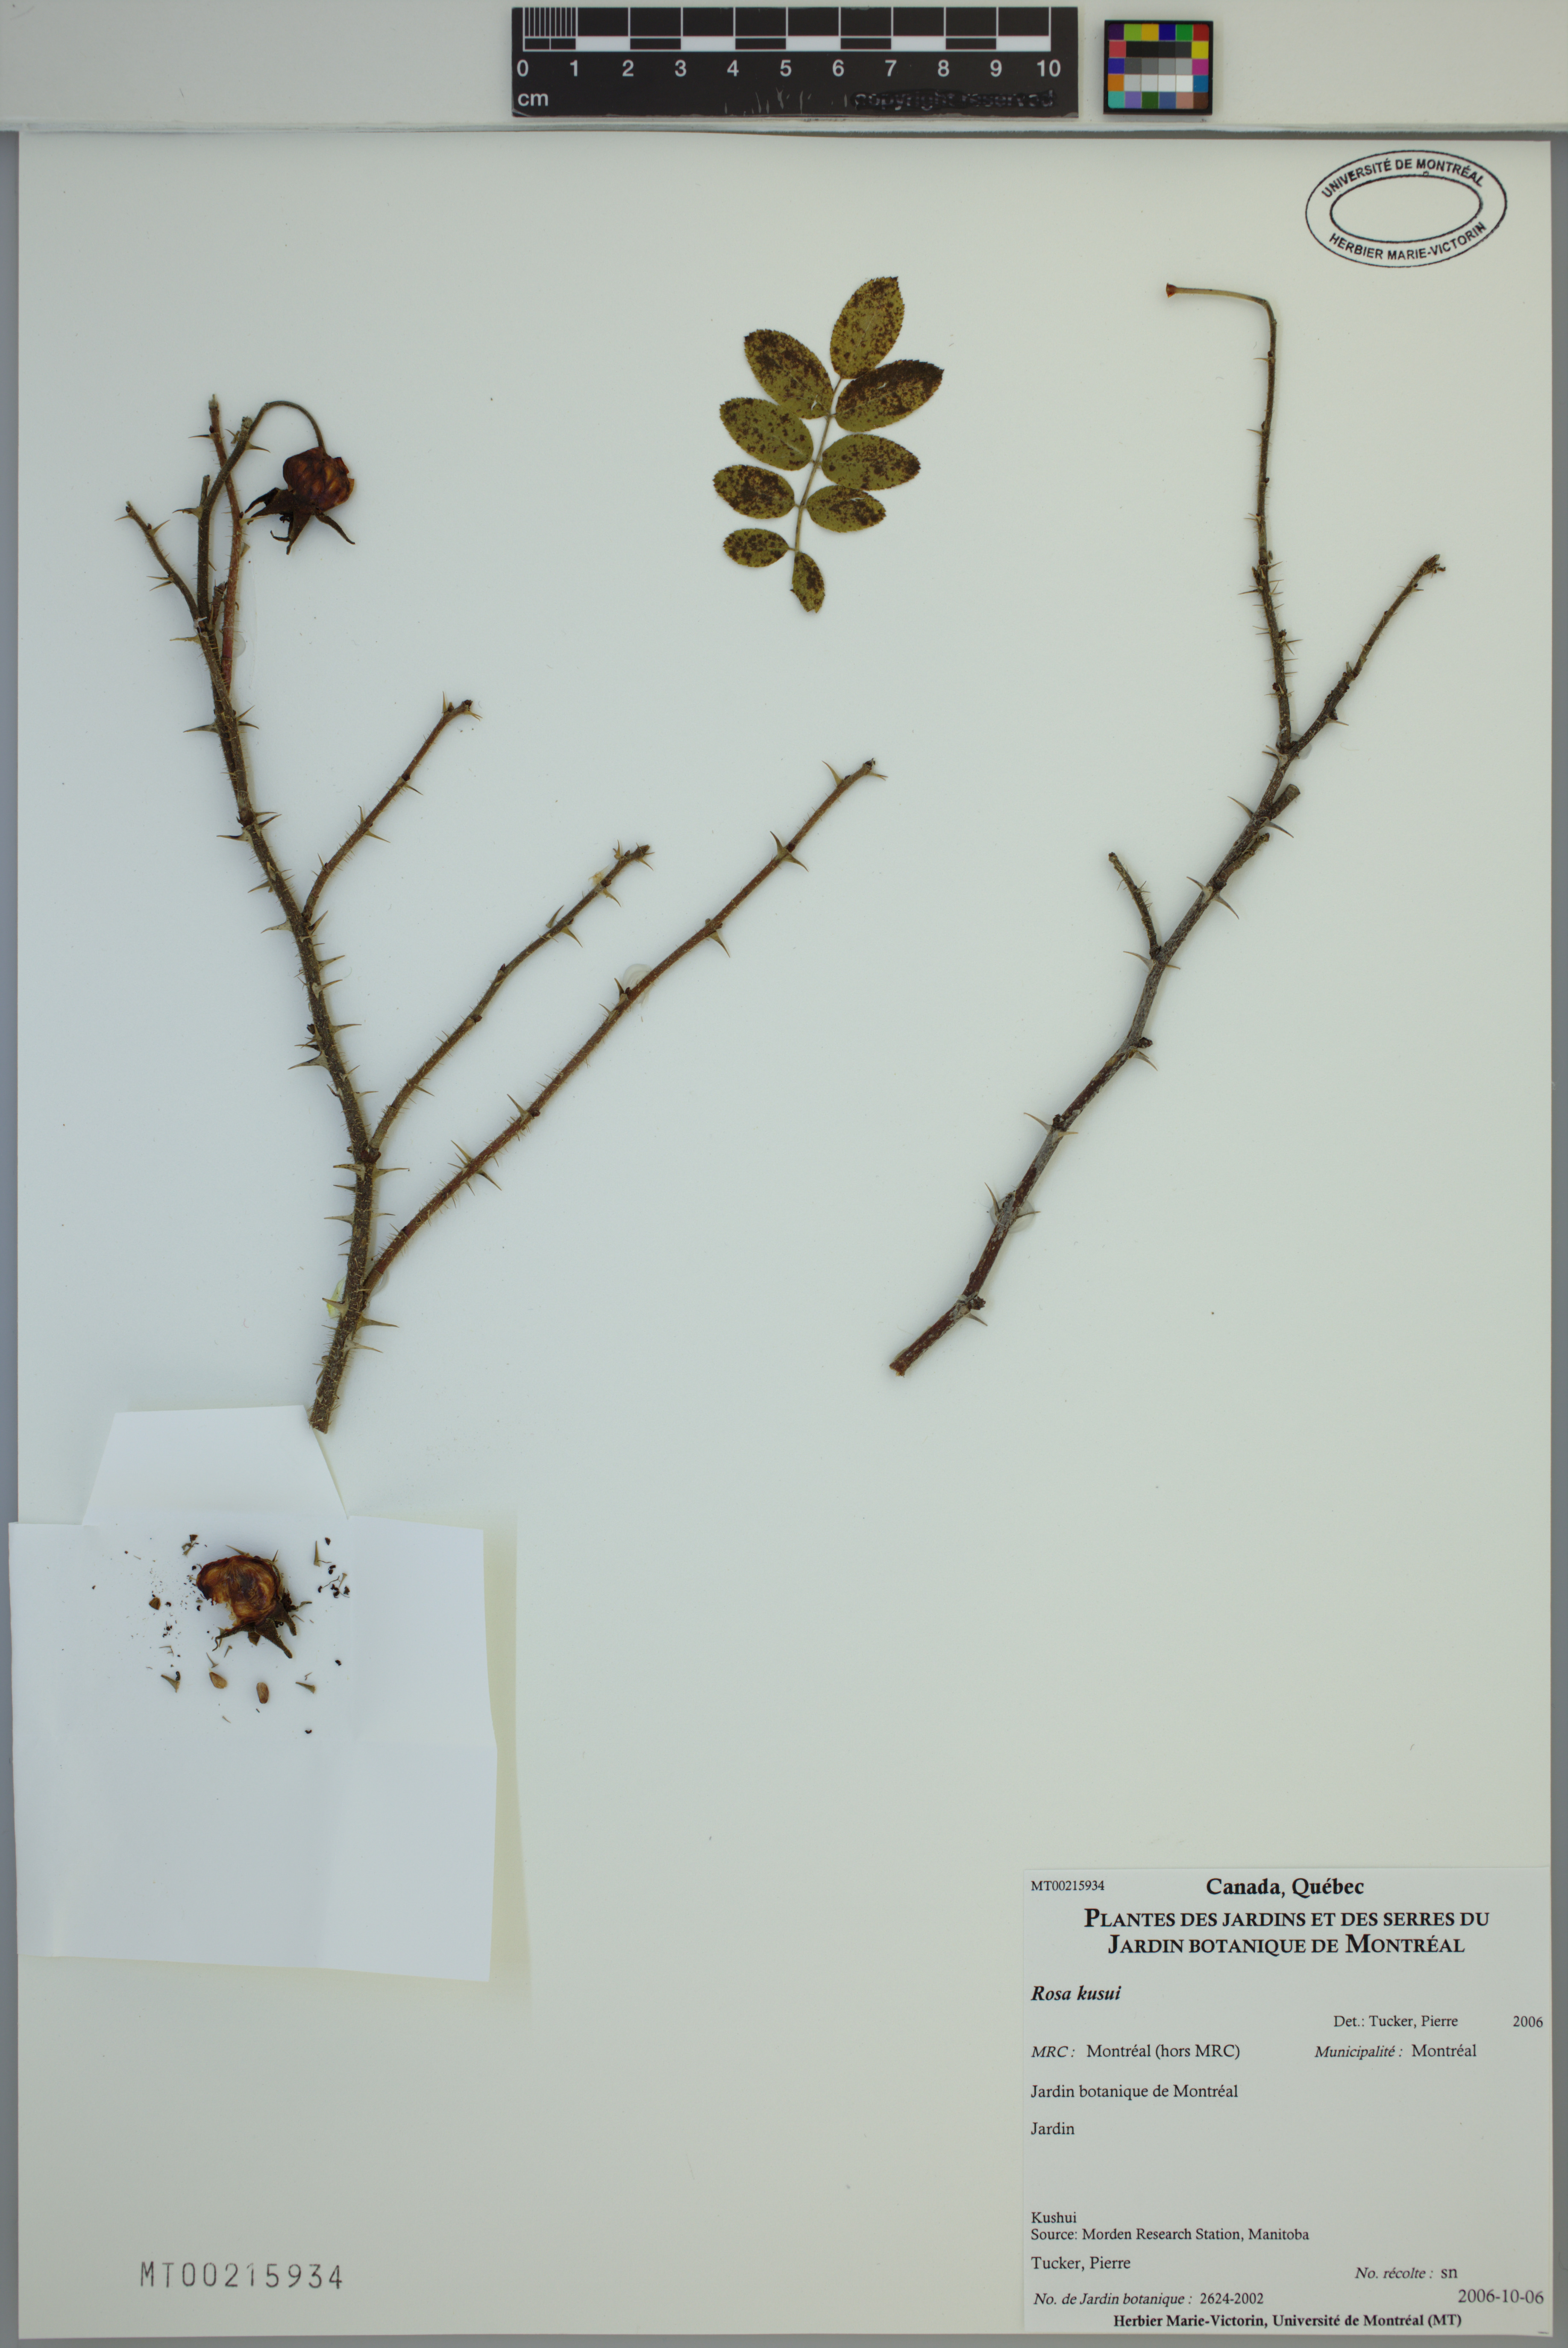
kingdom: Plantae
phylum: Tracheophyta
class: Magnoliopsida
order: Rosales
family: Rosaceae
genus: Rosa
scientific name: Rosa
